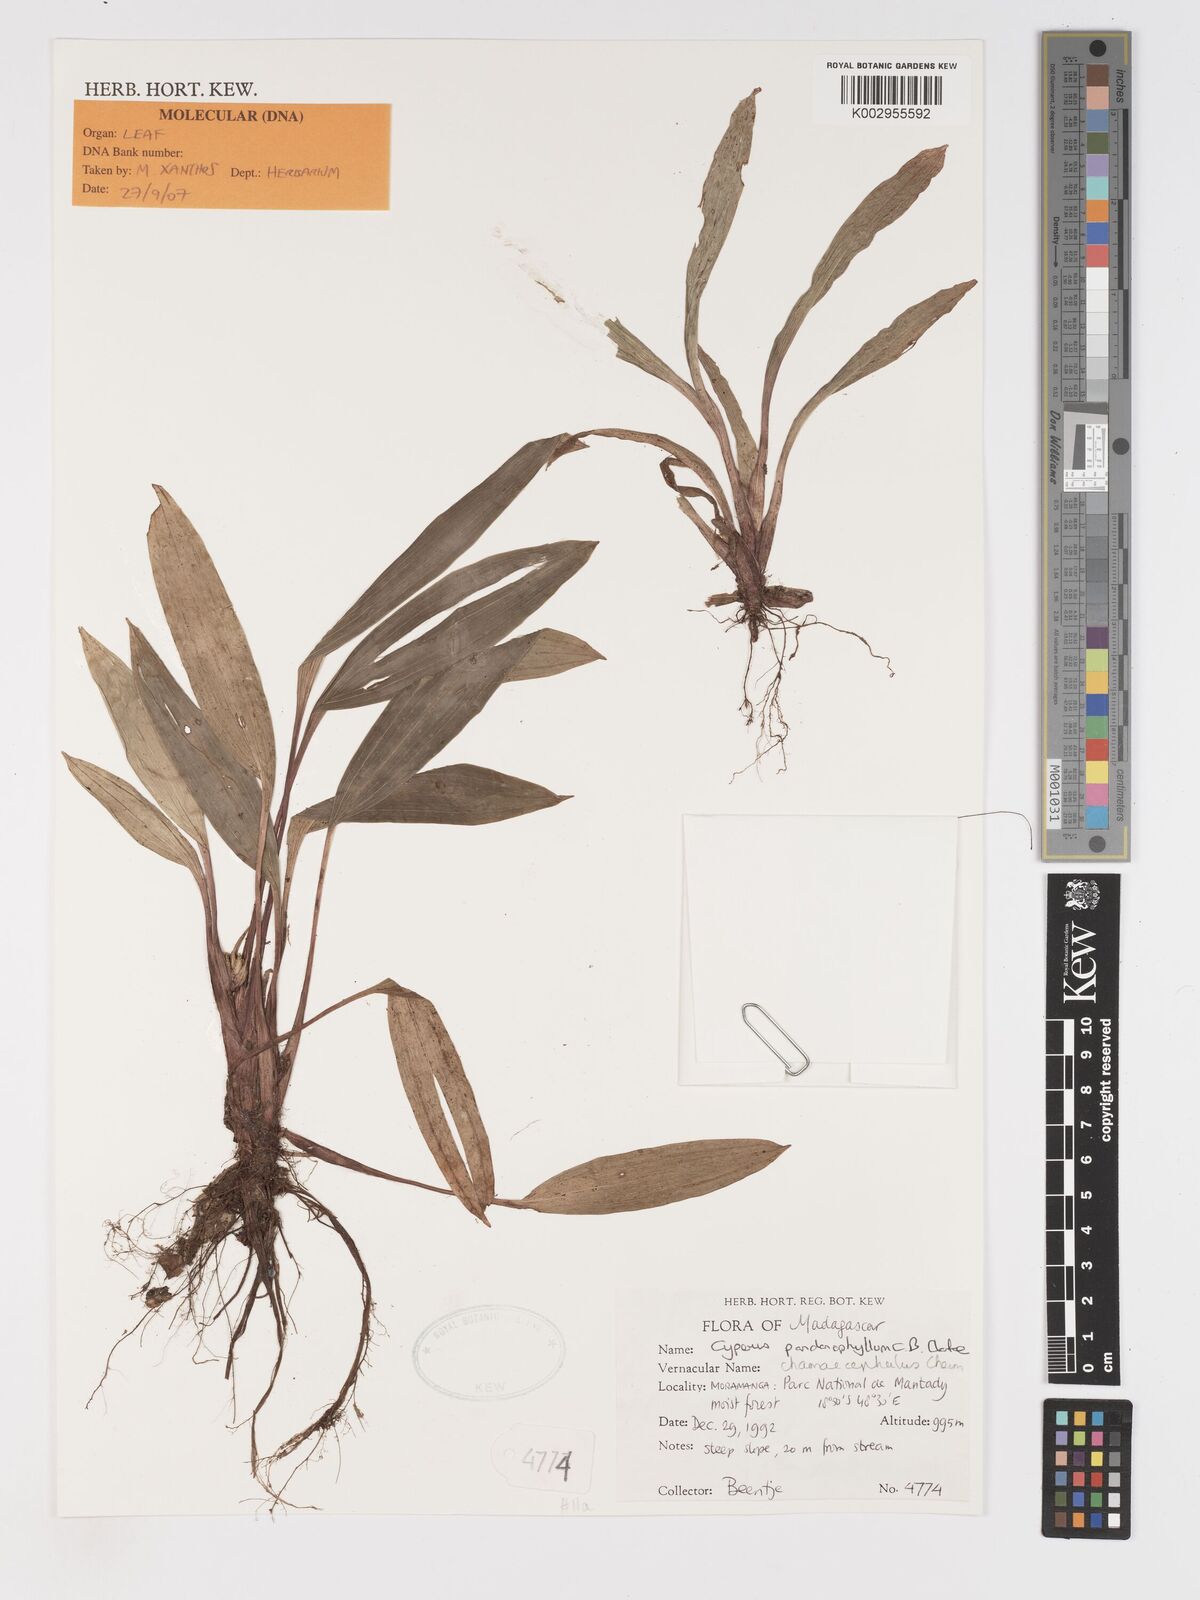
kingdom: Plantae
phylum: Tracheophyta
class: Liliopsida
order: Poales
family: Cyperaceae
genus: Cyperus
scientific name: Cyperus chamaecephalus
